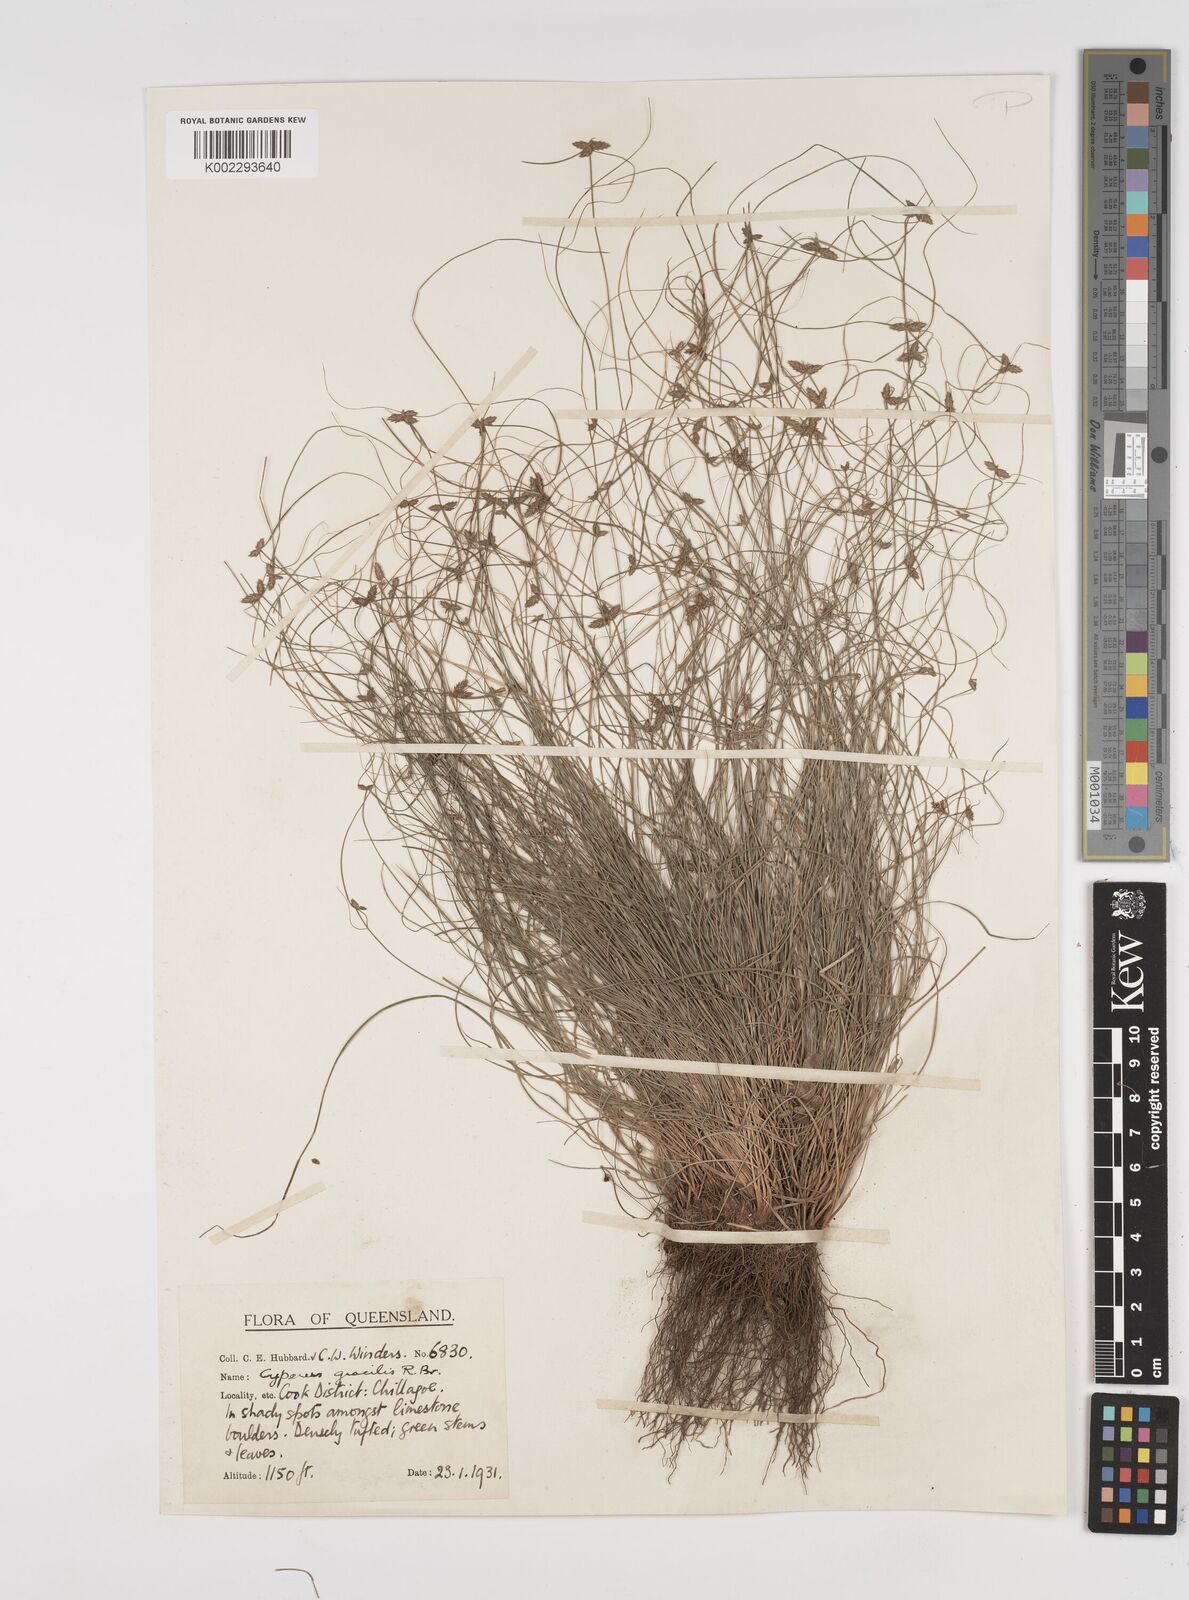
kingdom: Plantae
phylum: Tracheophyta
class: Liliopsida
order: Poales
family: Cyperaceae
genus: Cyperus
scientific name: Cyperus gracilis
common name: Slimjim flatsedge
